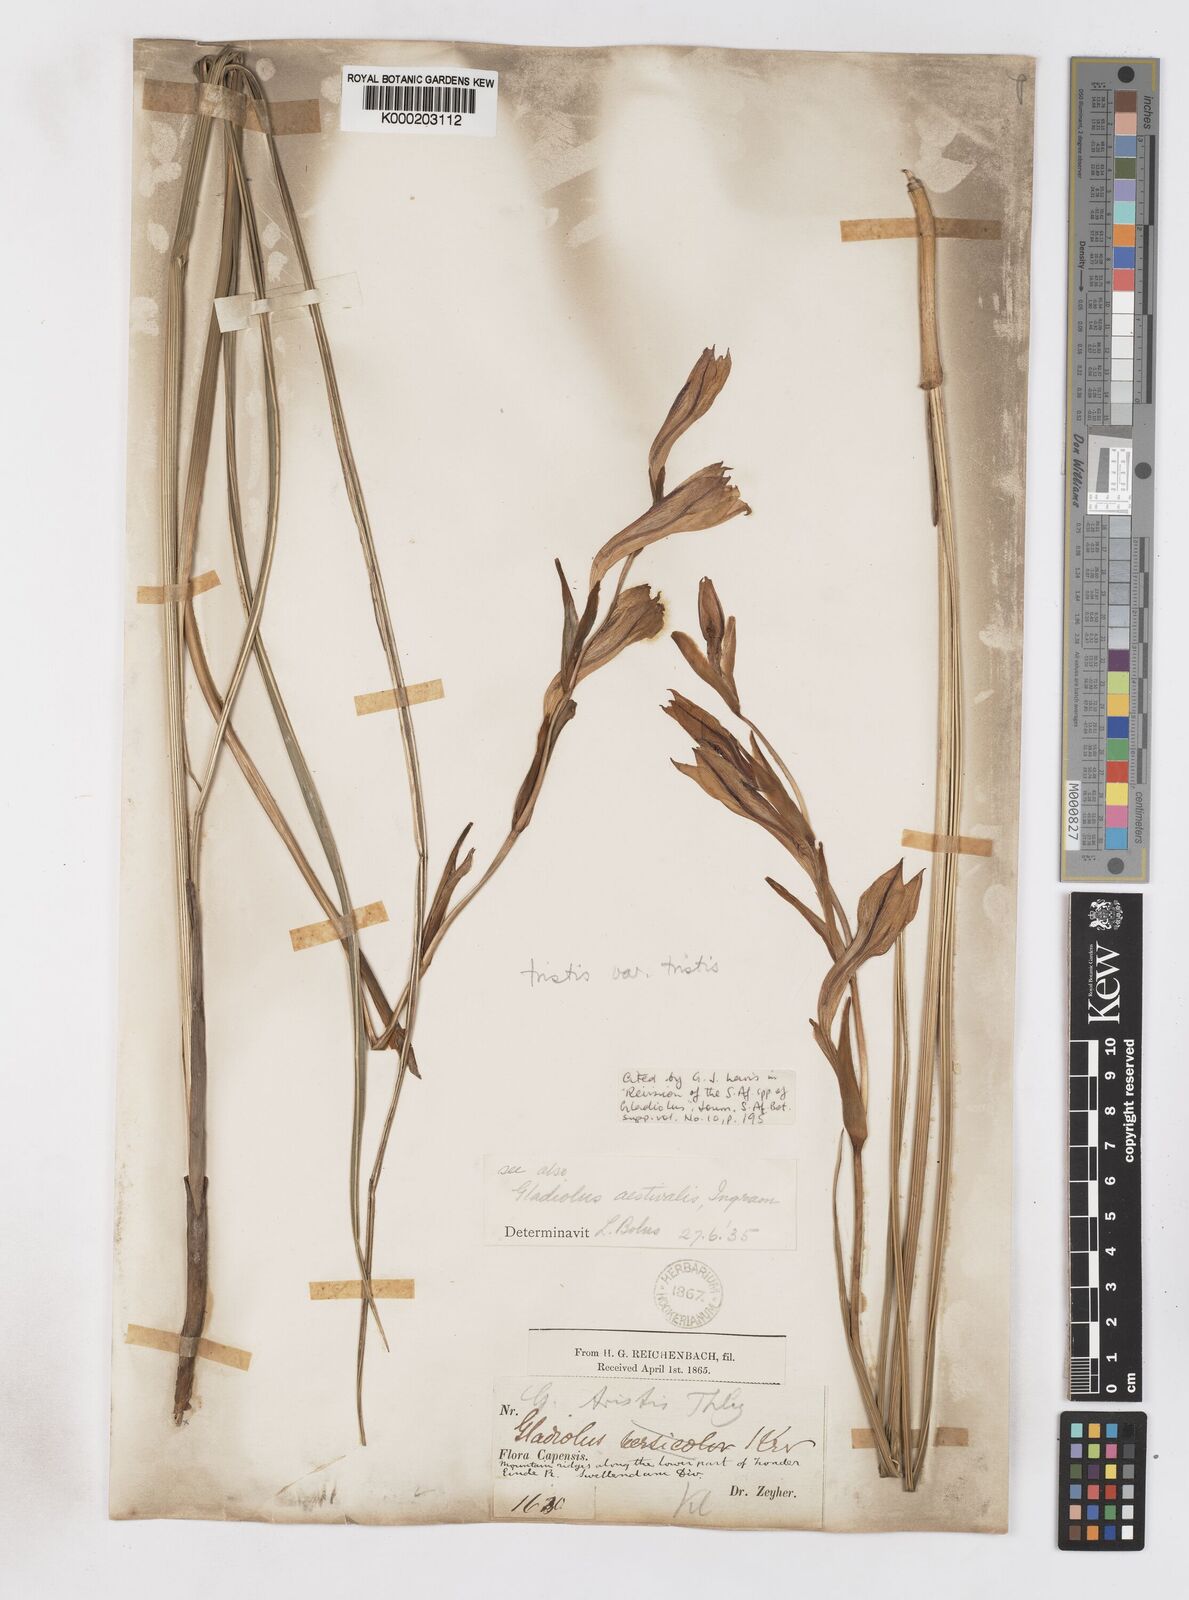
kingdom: Plantae
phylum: Tracheophyta
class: Liliopsida
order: Asparagales
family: Iridaceae
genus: Gladiolus
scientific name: Gladiolus tristis
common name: Ever-flowering gladiolus
